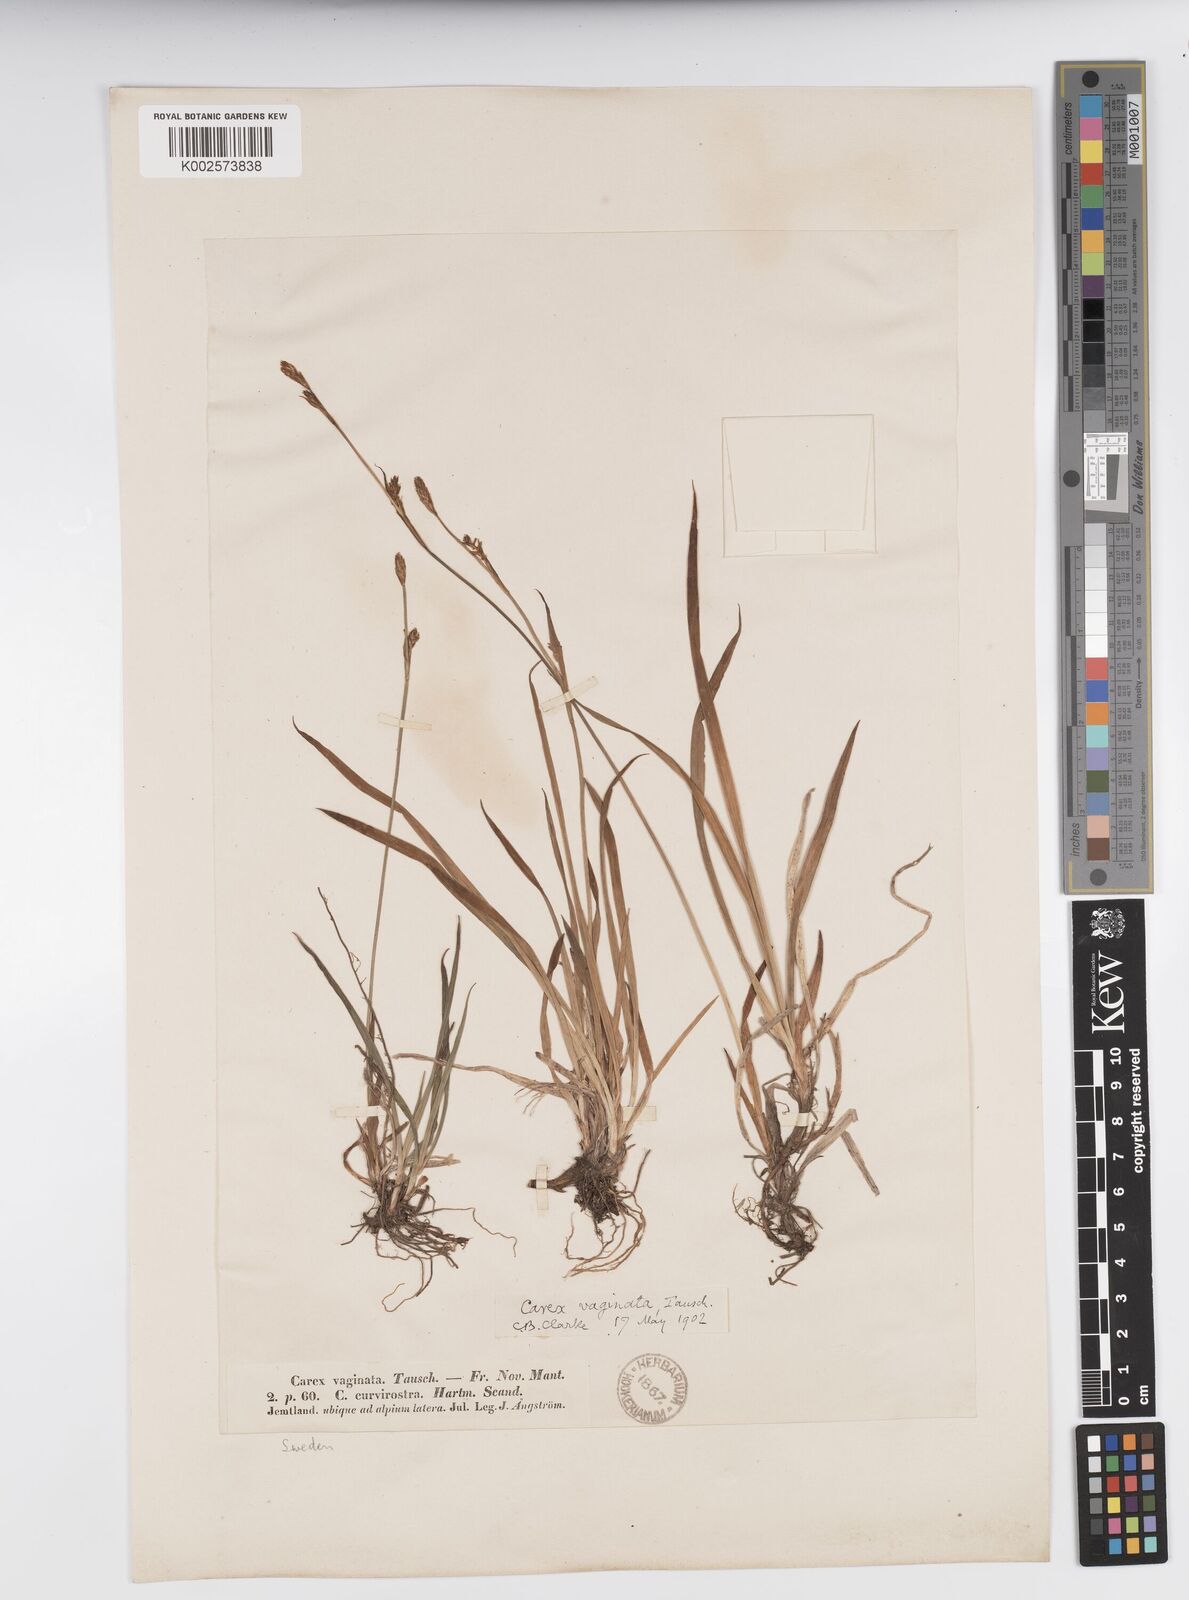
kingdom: Plantae
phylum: Tracheophyta
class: Liliopsida
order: Poales
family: Cyperaceae
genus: Carex
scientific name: Carex vaginata
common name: Sheathed sedge
